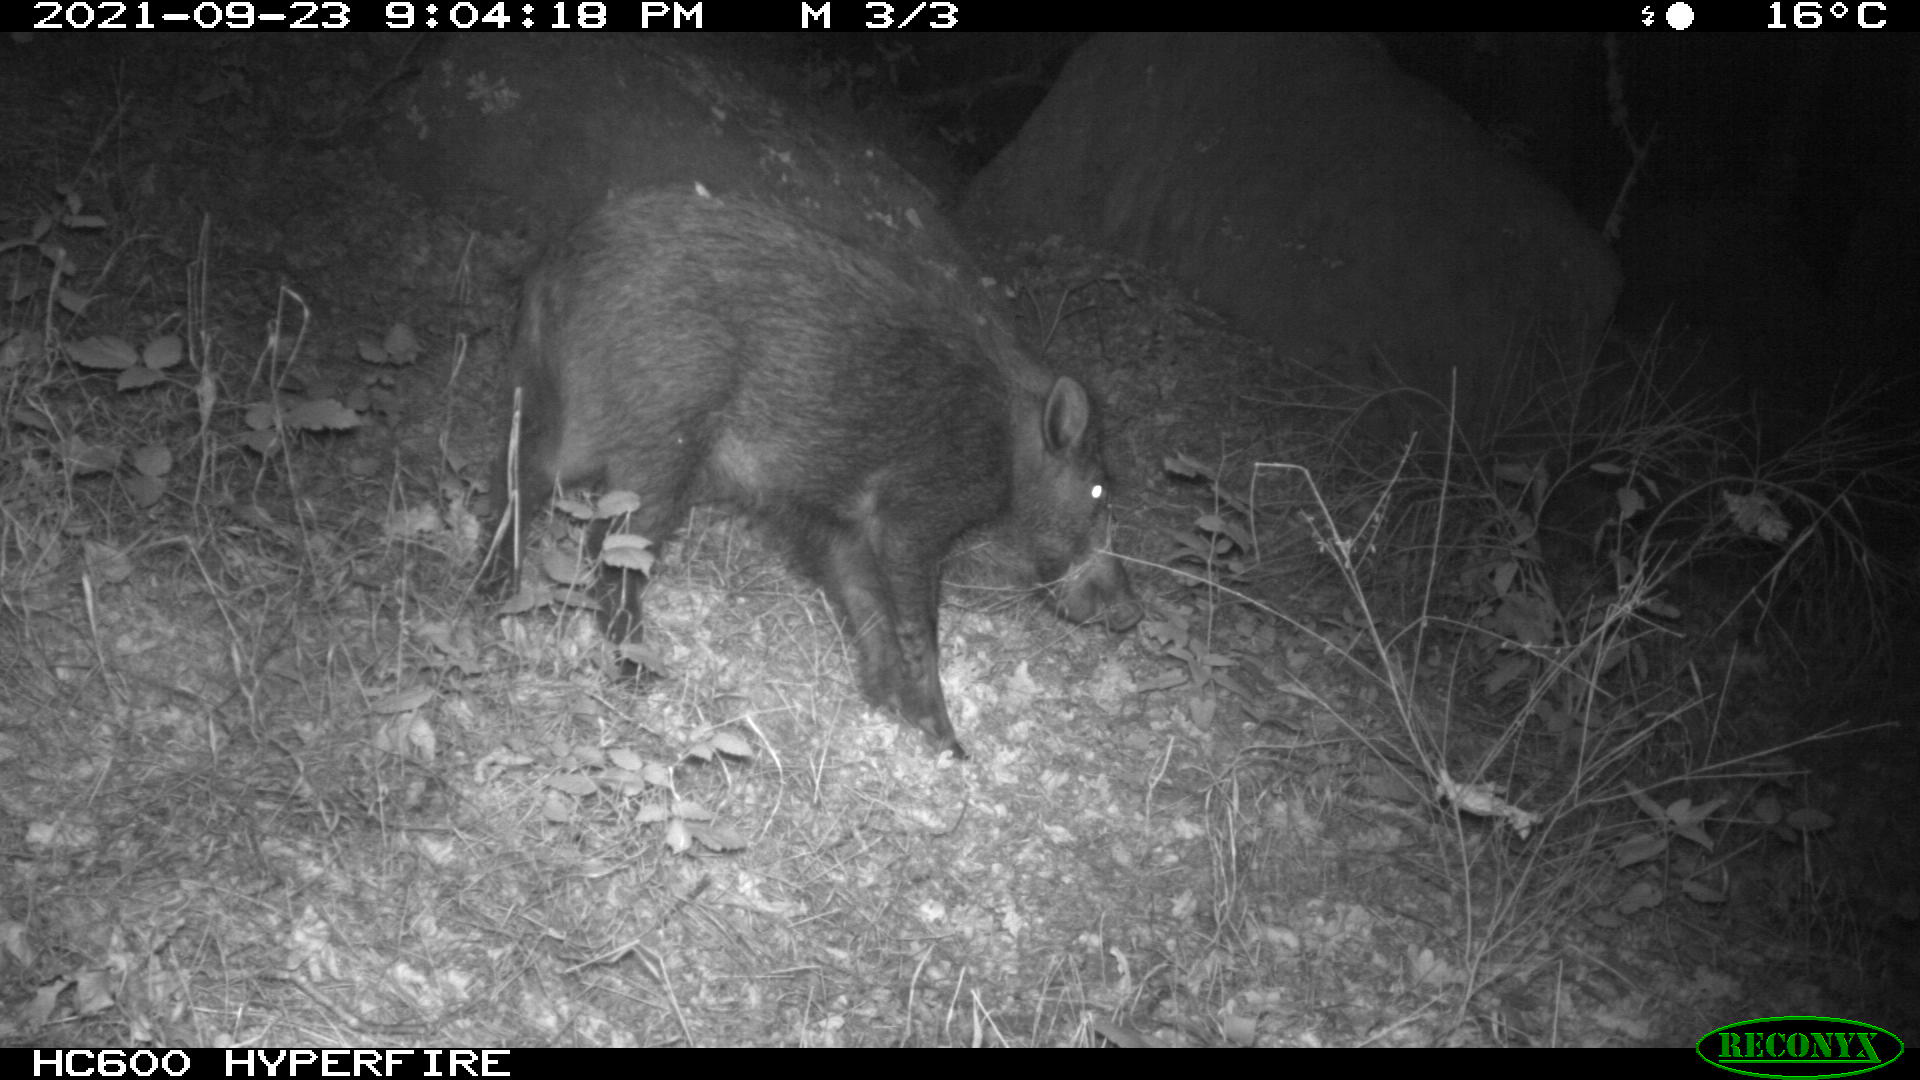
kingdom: Animalia
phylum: Chordata
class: Mammalia
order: Artiodactyla
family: Suidae
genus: Sus
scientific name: Sus scrofa
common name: Wild boar
